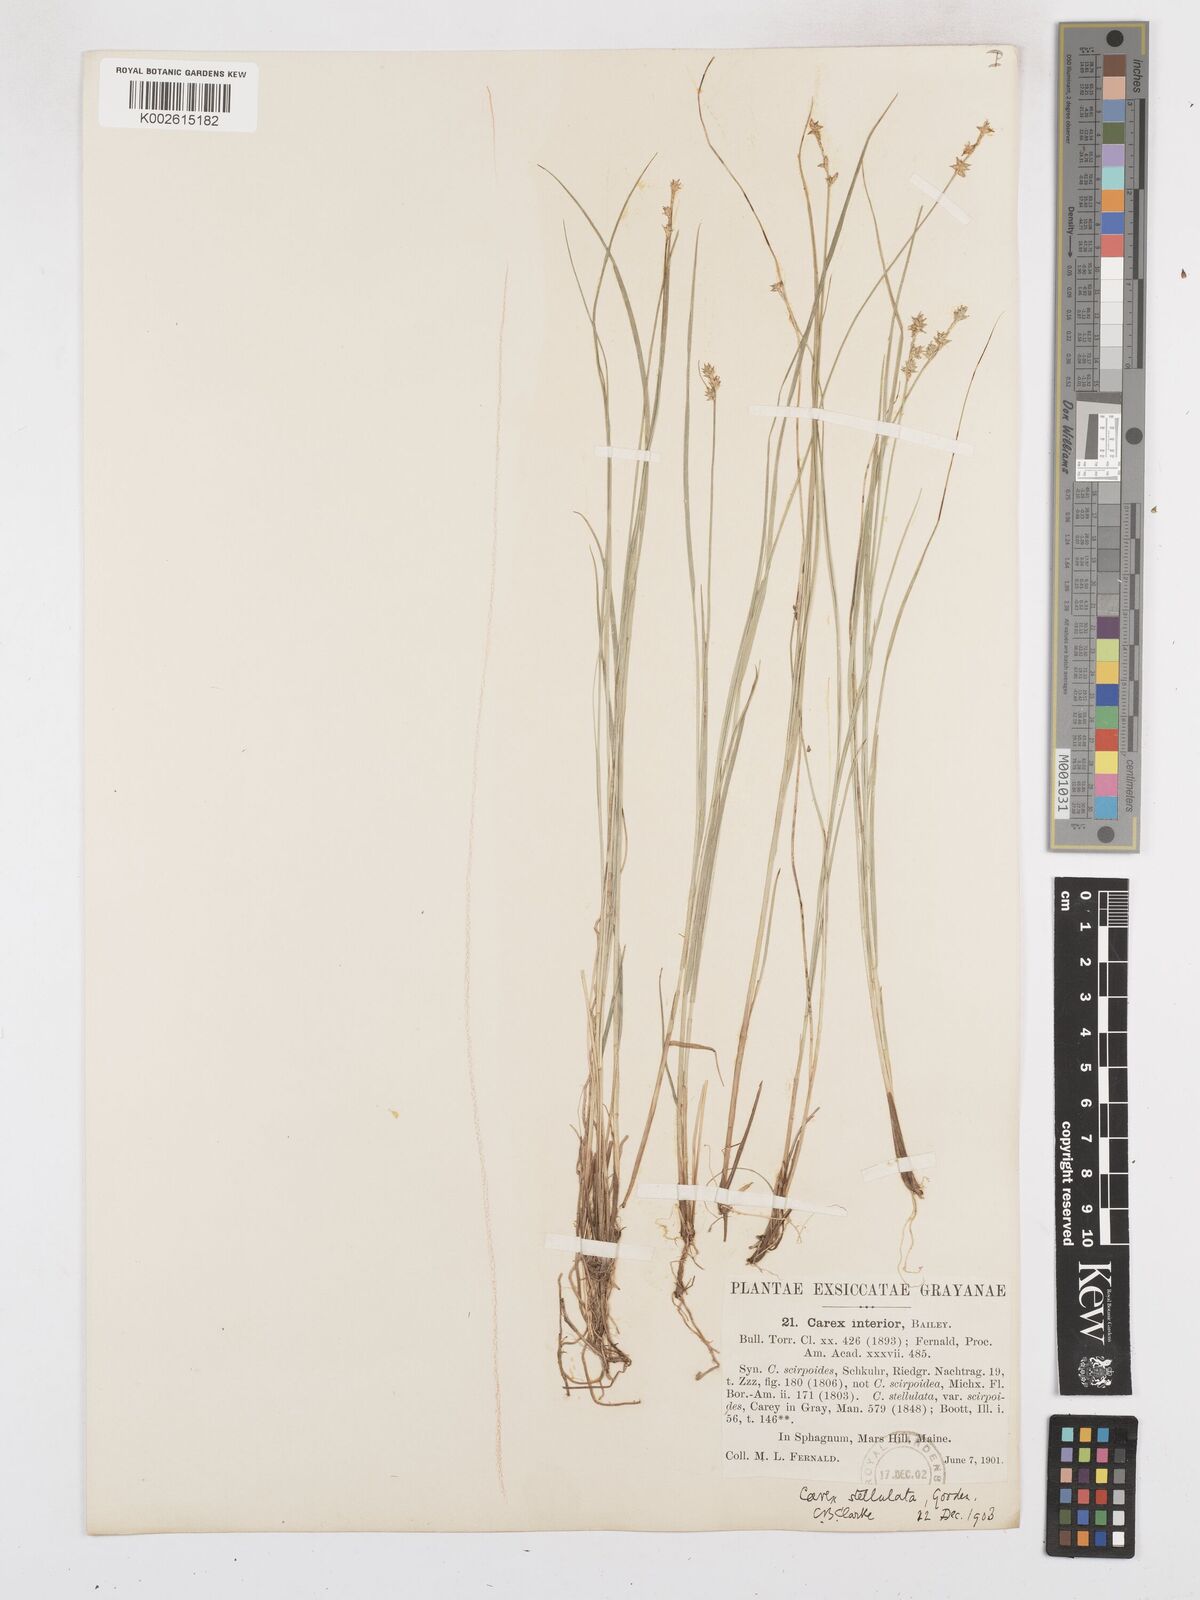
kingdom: Plantae
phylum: Tracheophyta
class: Liliopsida
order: Poales
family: Cyperaceae
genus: Carex
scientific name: Carex echinata
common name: Star sedge
